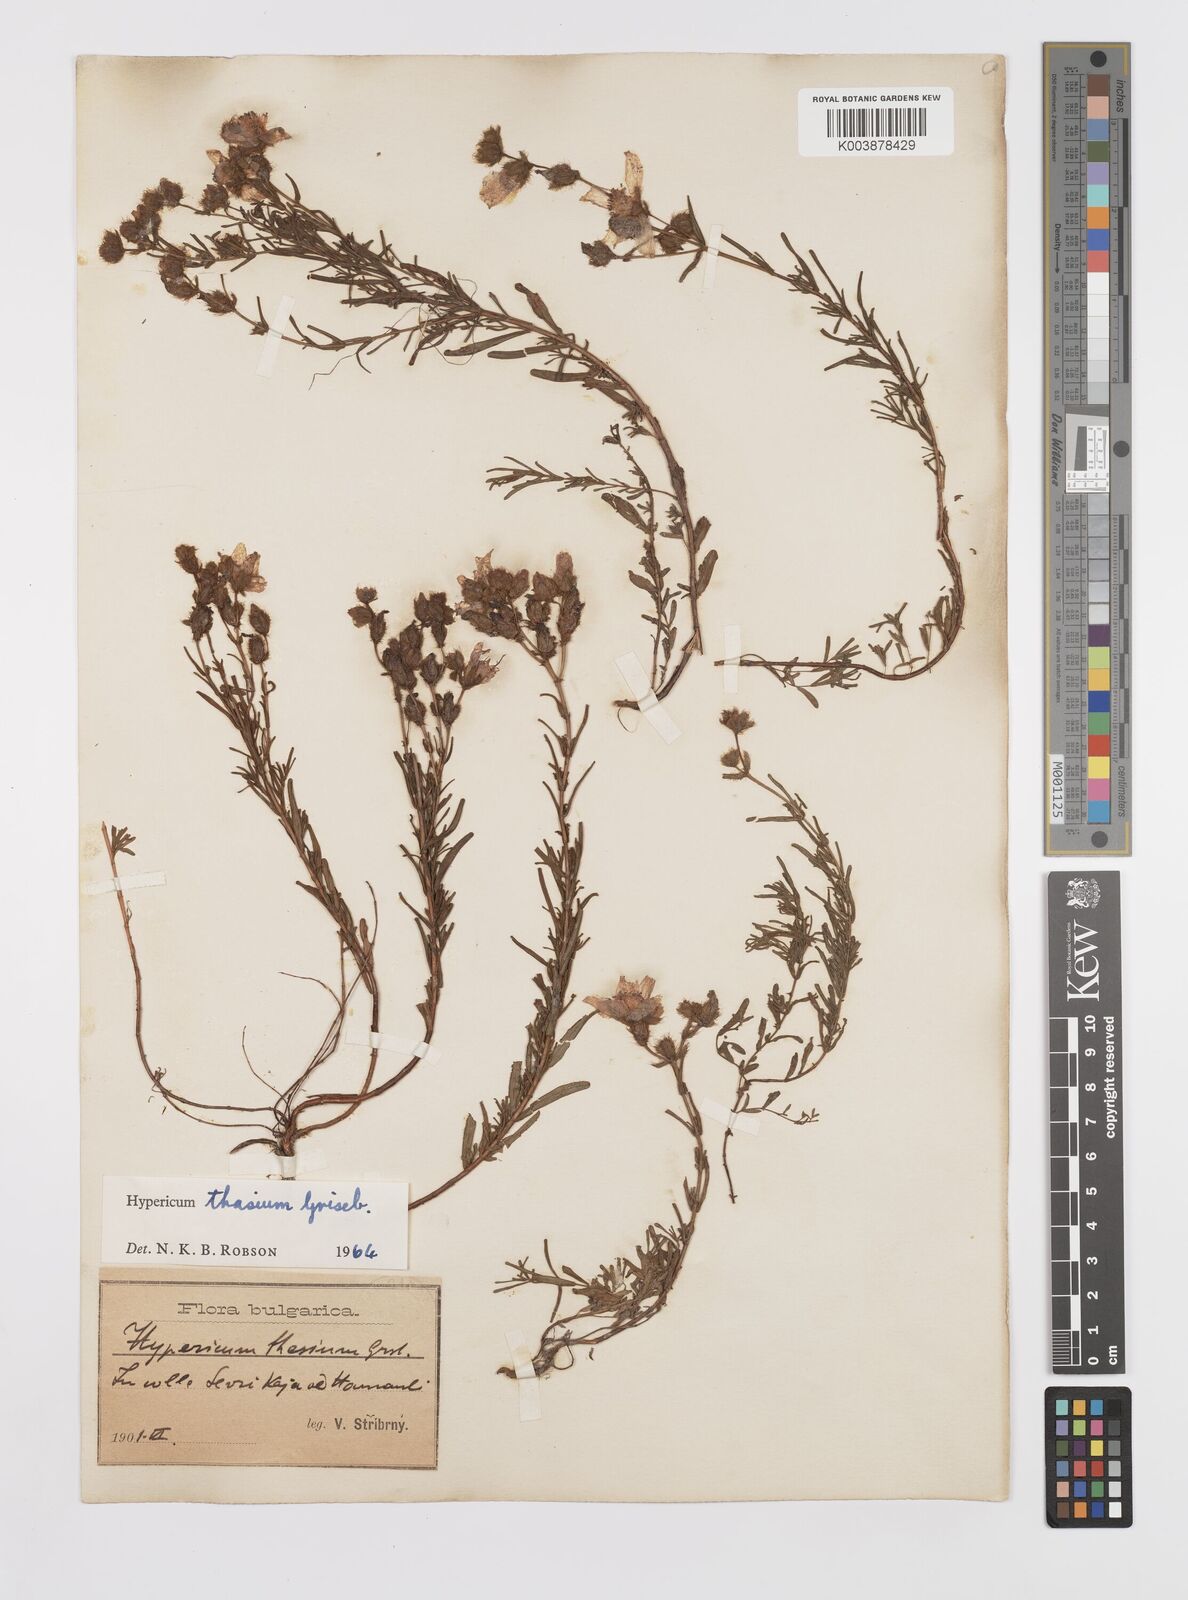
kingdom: Plantae
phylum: Tracheophyta
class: Magnoliopsida
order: Malpighiales
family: Hypericaceae
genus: Hypericum
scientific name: Hypericum thasium
